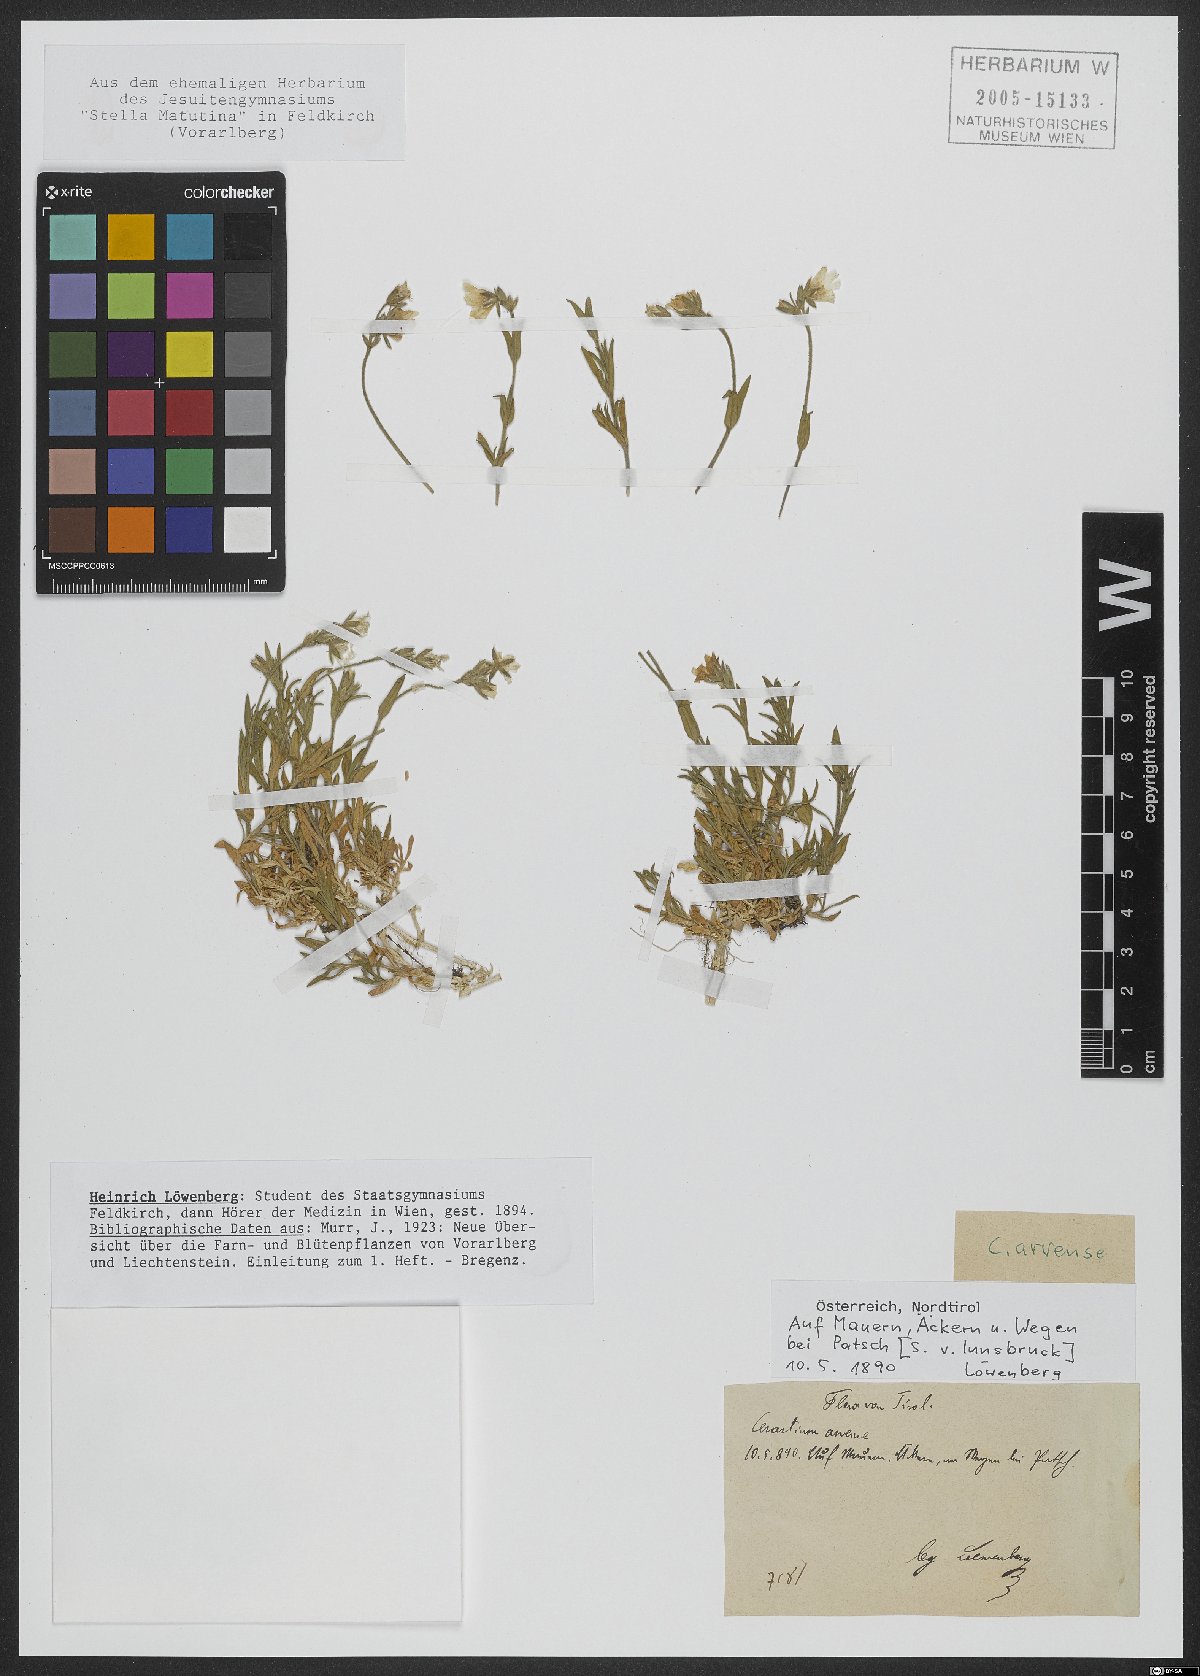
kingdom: Plantae
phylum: Tracheophyta
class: Magnoliopsida
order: Caryophyllales
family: Caryophyllaceae
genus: Cerastium
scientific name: Cerastium arvense
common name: Field mouse-ear
